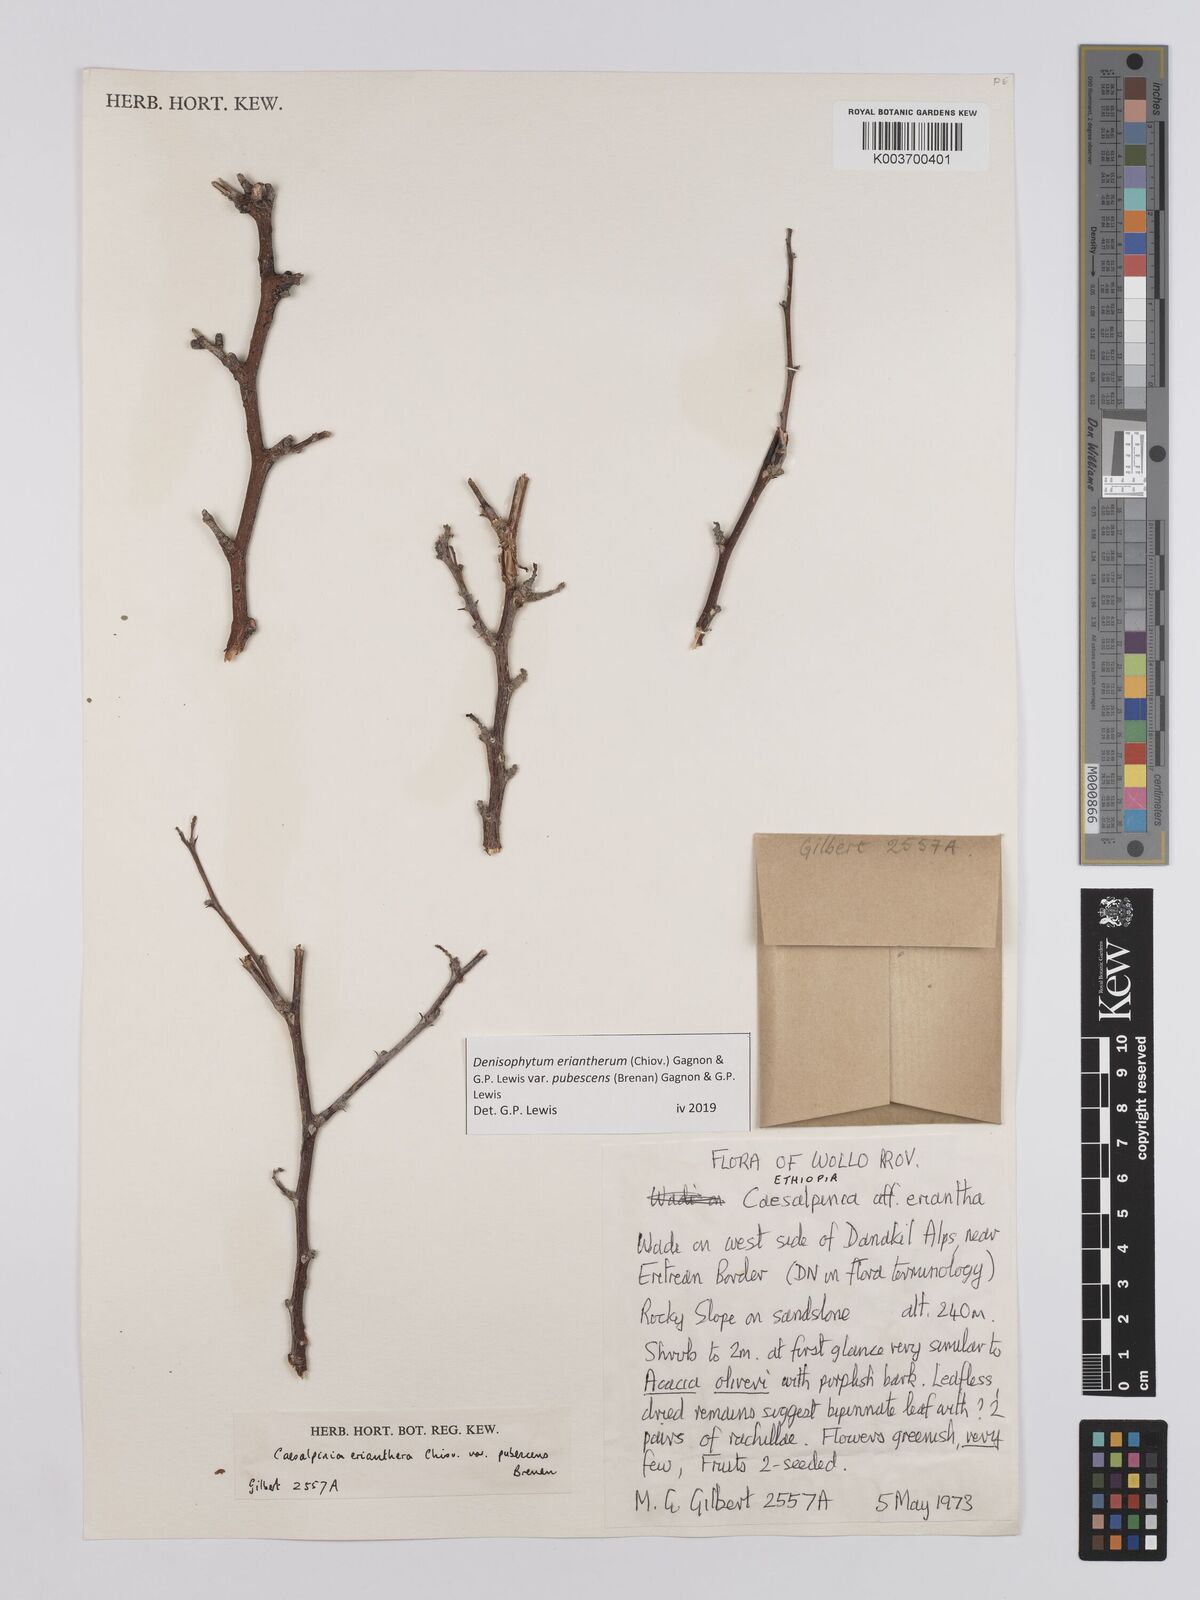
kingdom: Plantae
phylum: Tracheophyta
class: Magnoliopsida
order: Fabales
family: Fabaceae
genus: Denisophytum
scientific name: Denisophytum eriantherum
